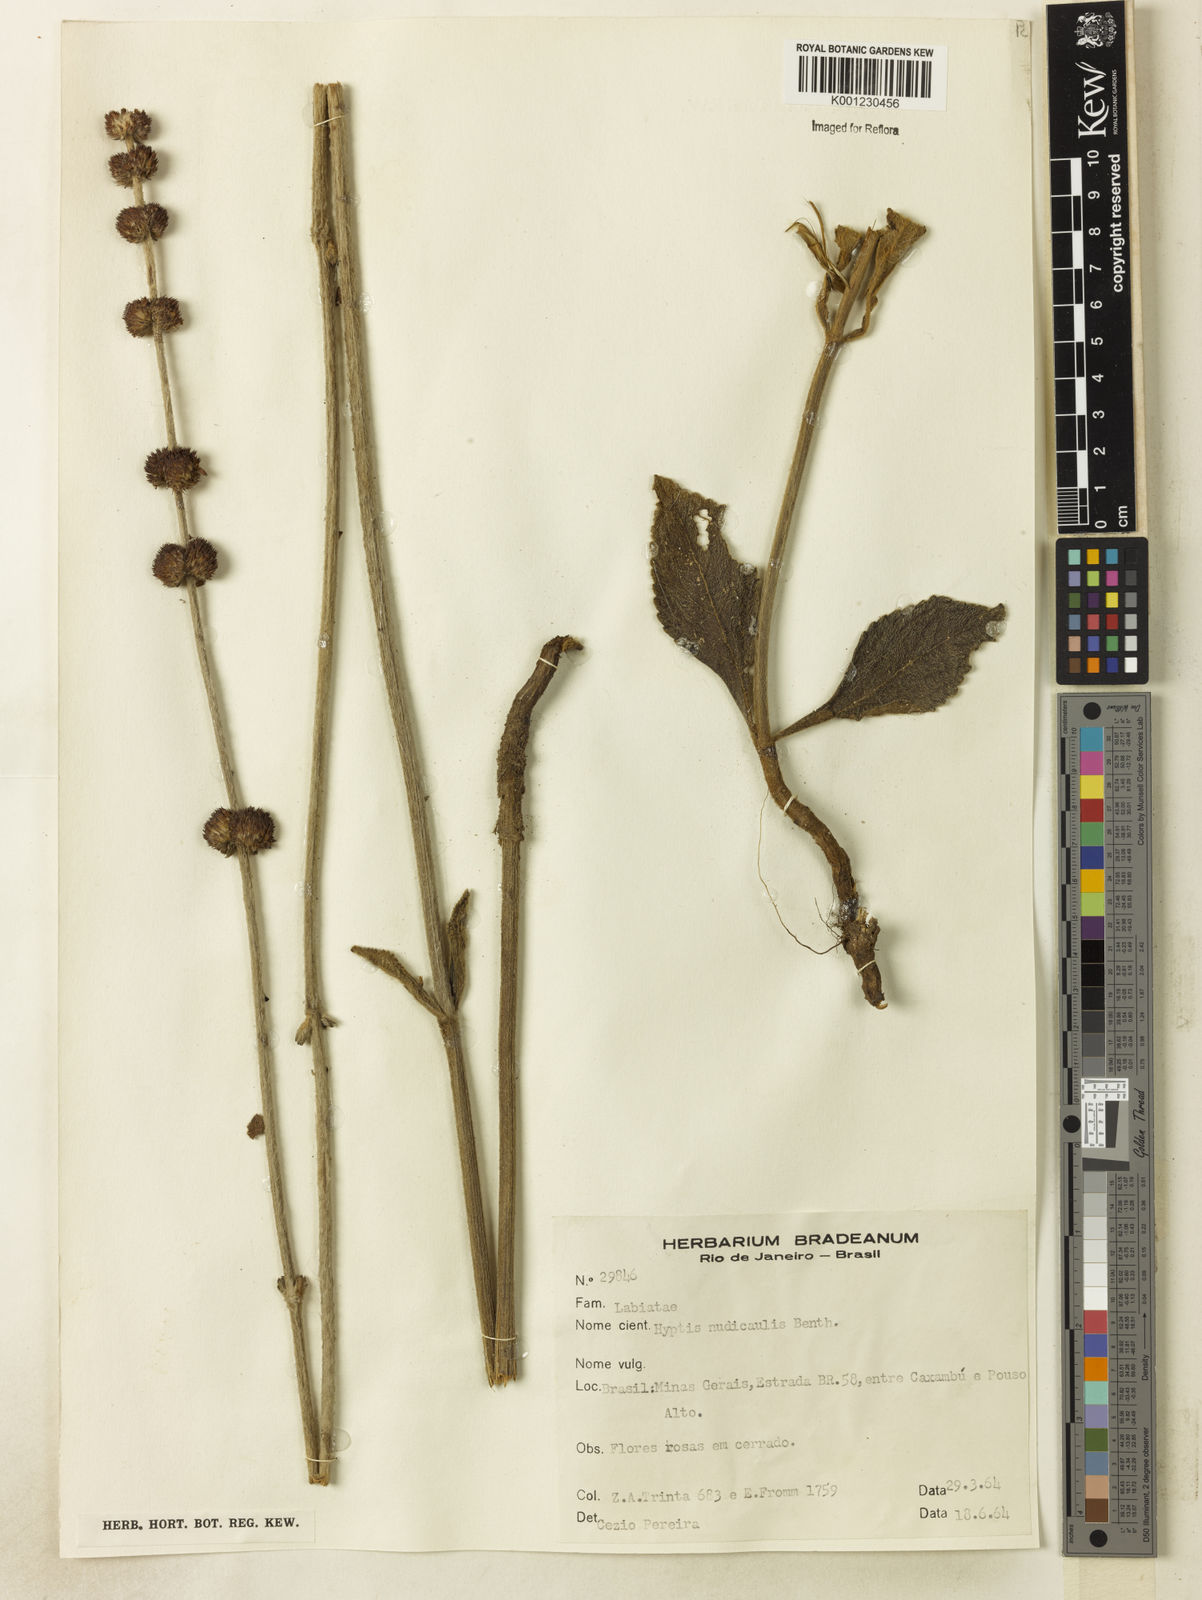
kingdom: Plantae
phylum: Tracheophyta
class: Magnoliopsida
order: Lamiales
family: Lamiaceae
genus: Hyptis
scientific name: Hyptis nudicaulis
